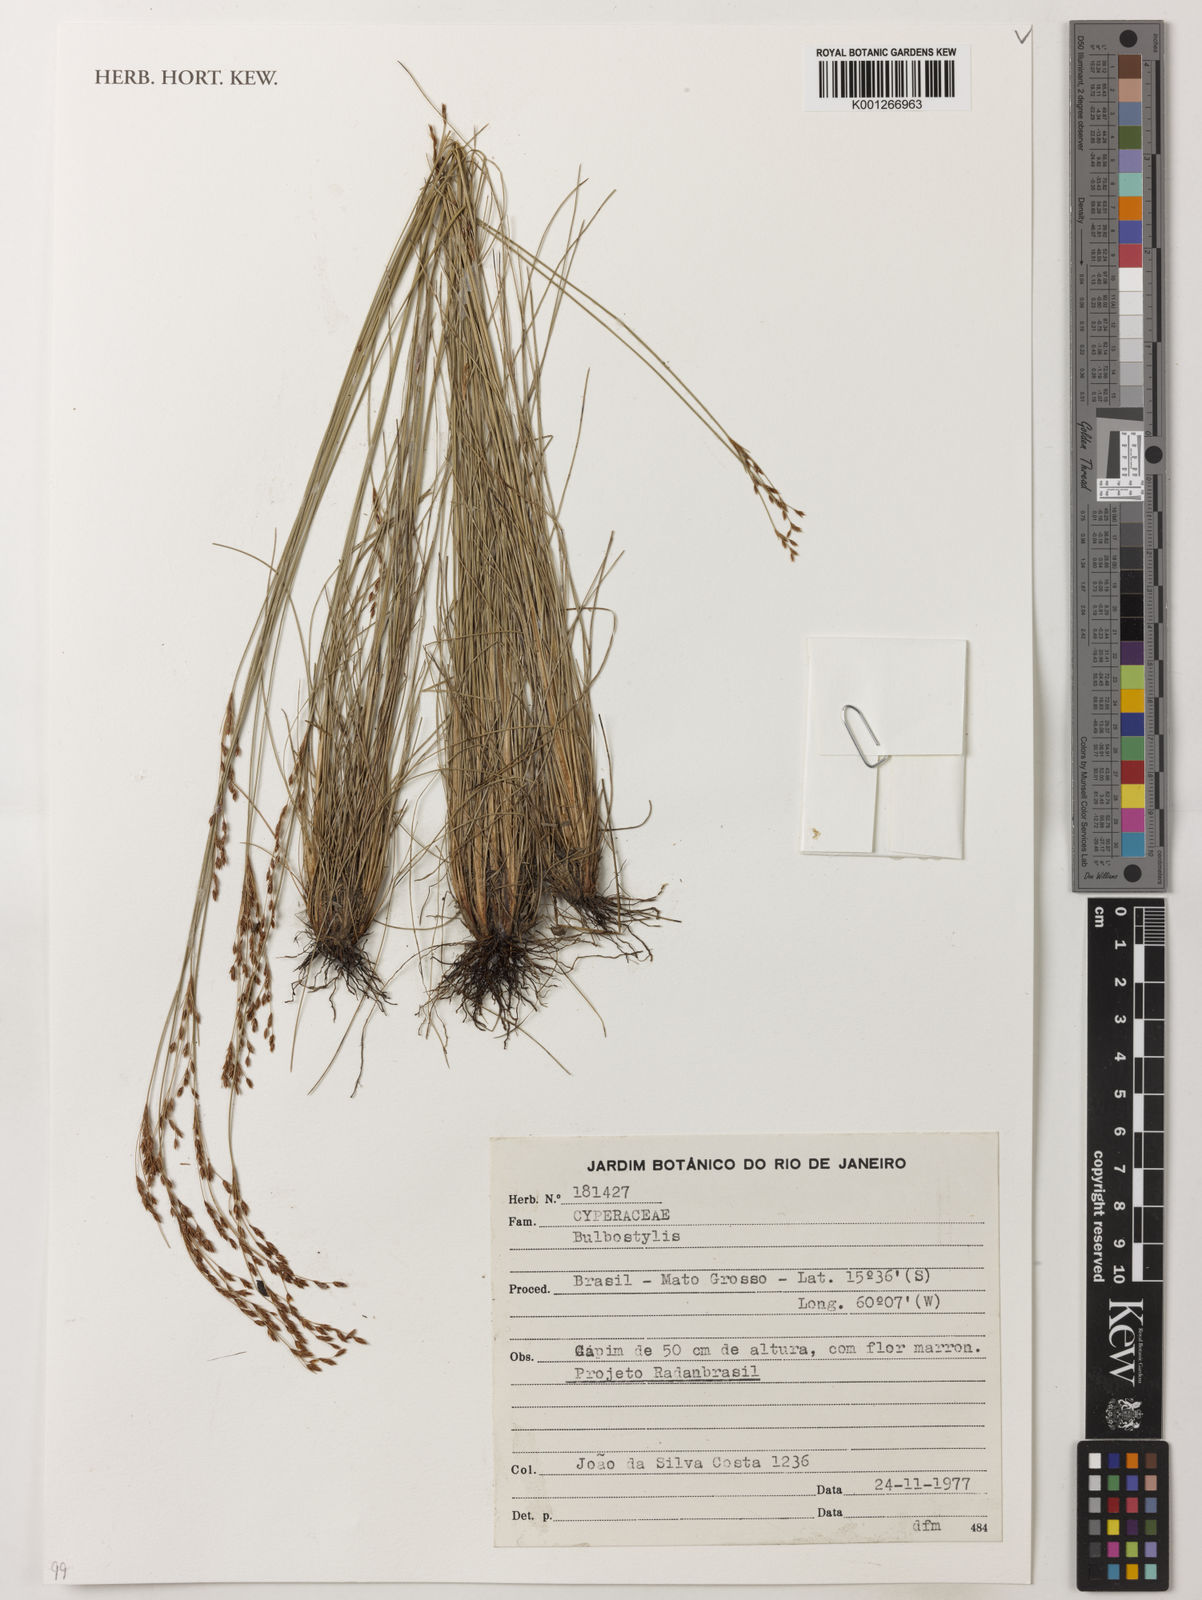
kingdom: Plantae
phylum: Tracheophyta
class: Liliopsida
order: Poales
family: Cyperaceae
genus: Bulbostylis
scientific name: Bulbostylis
